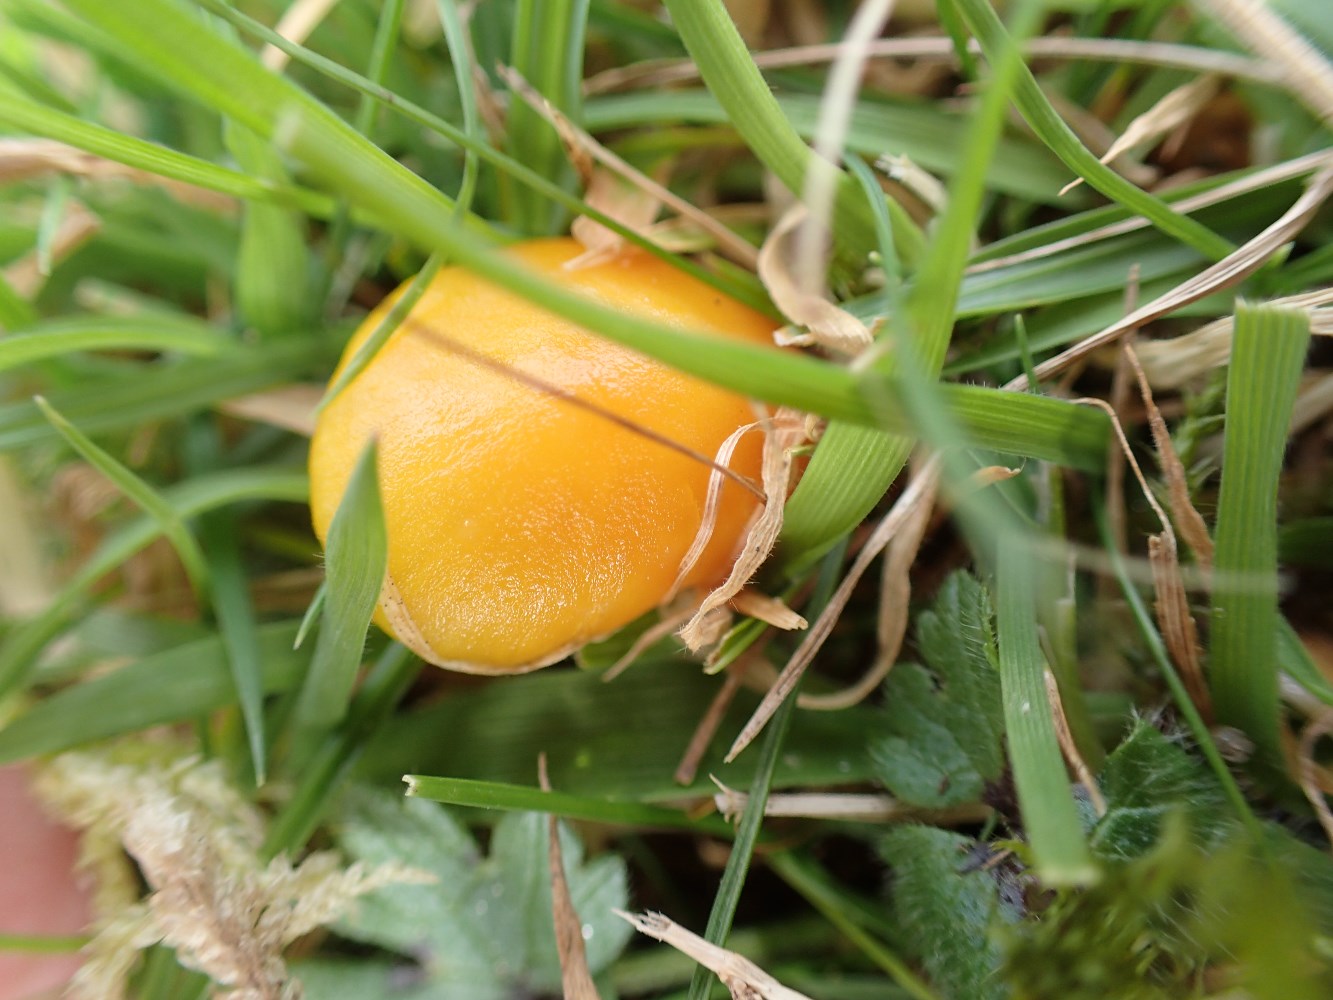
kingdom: Fungi
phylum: Basidiomycota
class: Agaricomycetes
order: Agaricales
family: Hygrophoraceae
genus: Hygrocybe
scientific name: Hygrocybe ceracea
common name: voksgul vokshat
